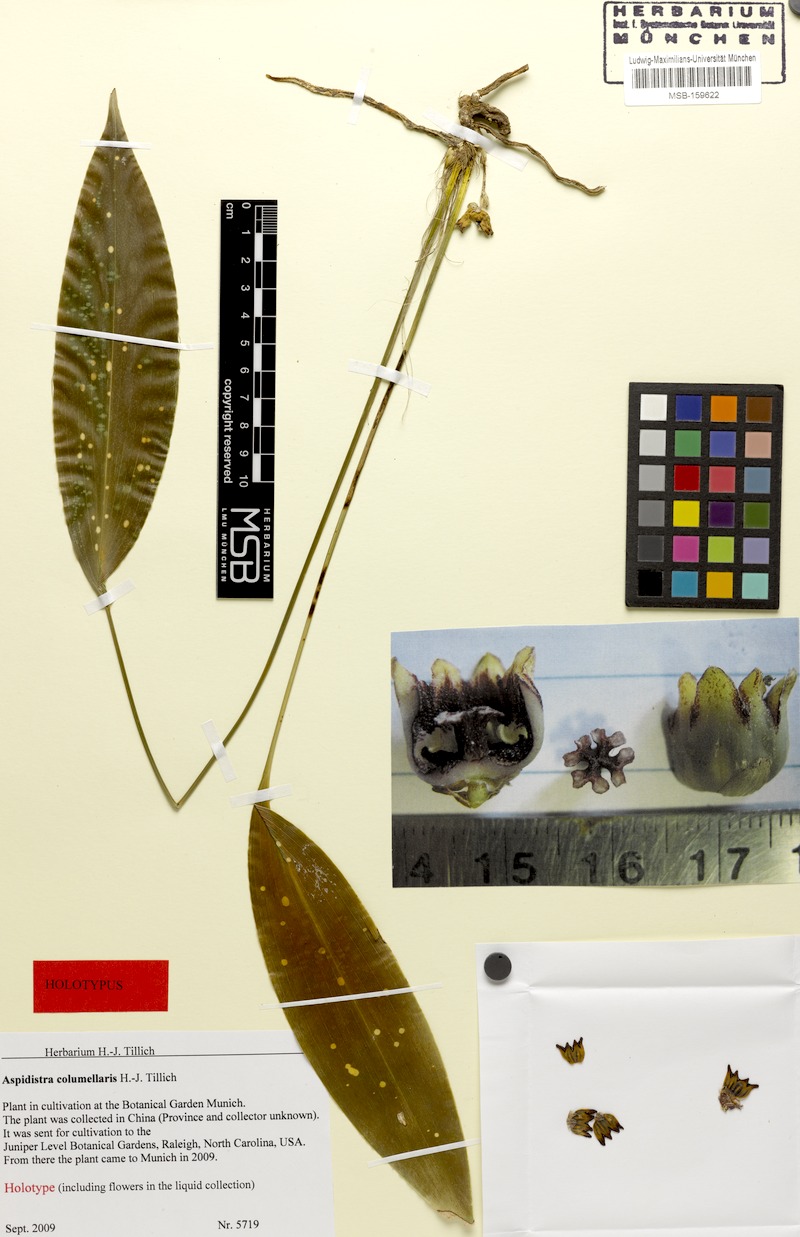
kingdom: Plantae
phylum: Tracheophyta
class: Liliopsida
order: Asparagales
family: Asparagaceae
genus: Aspidistra
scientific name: Aspidistra columellaris
